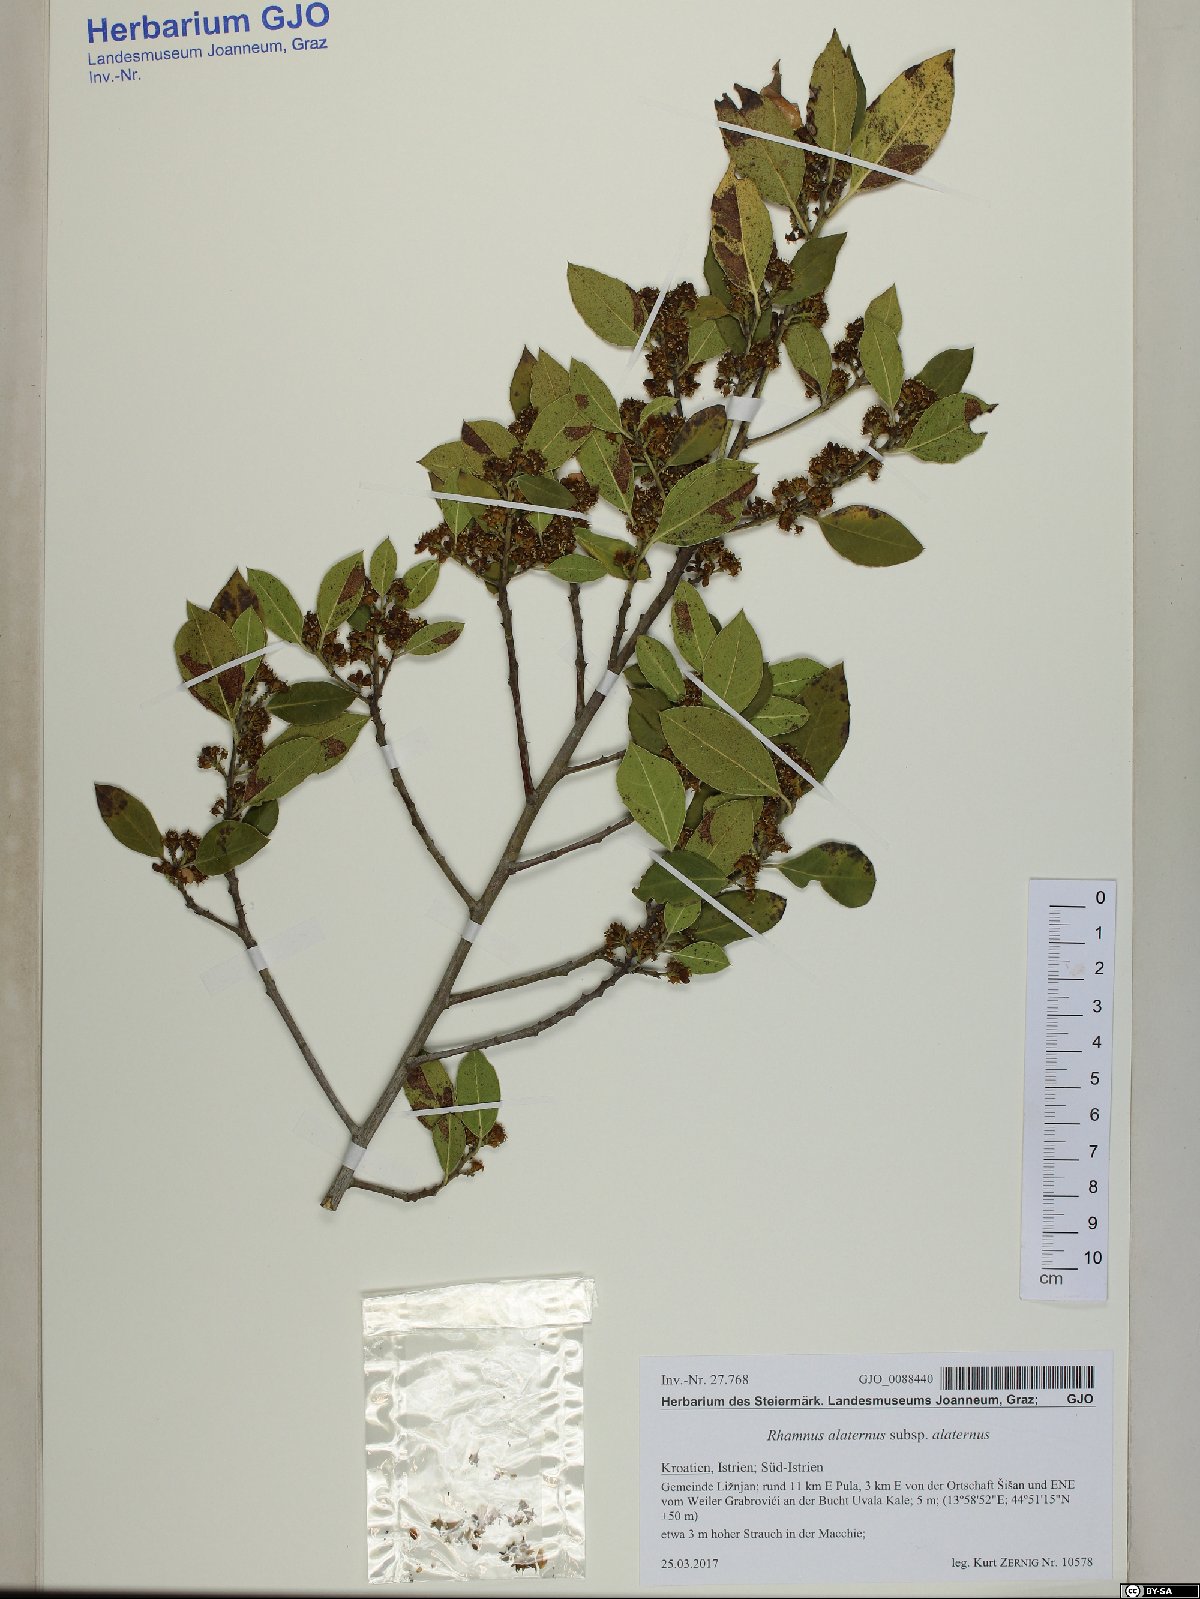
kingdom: Plantae
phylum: Tracheophyta
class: Magnoliopsida
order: Rosales
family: Rhamnaceae
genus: Rhamnus
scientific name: Rhamnus alaternus
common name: Mediterranean buckthorn
